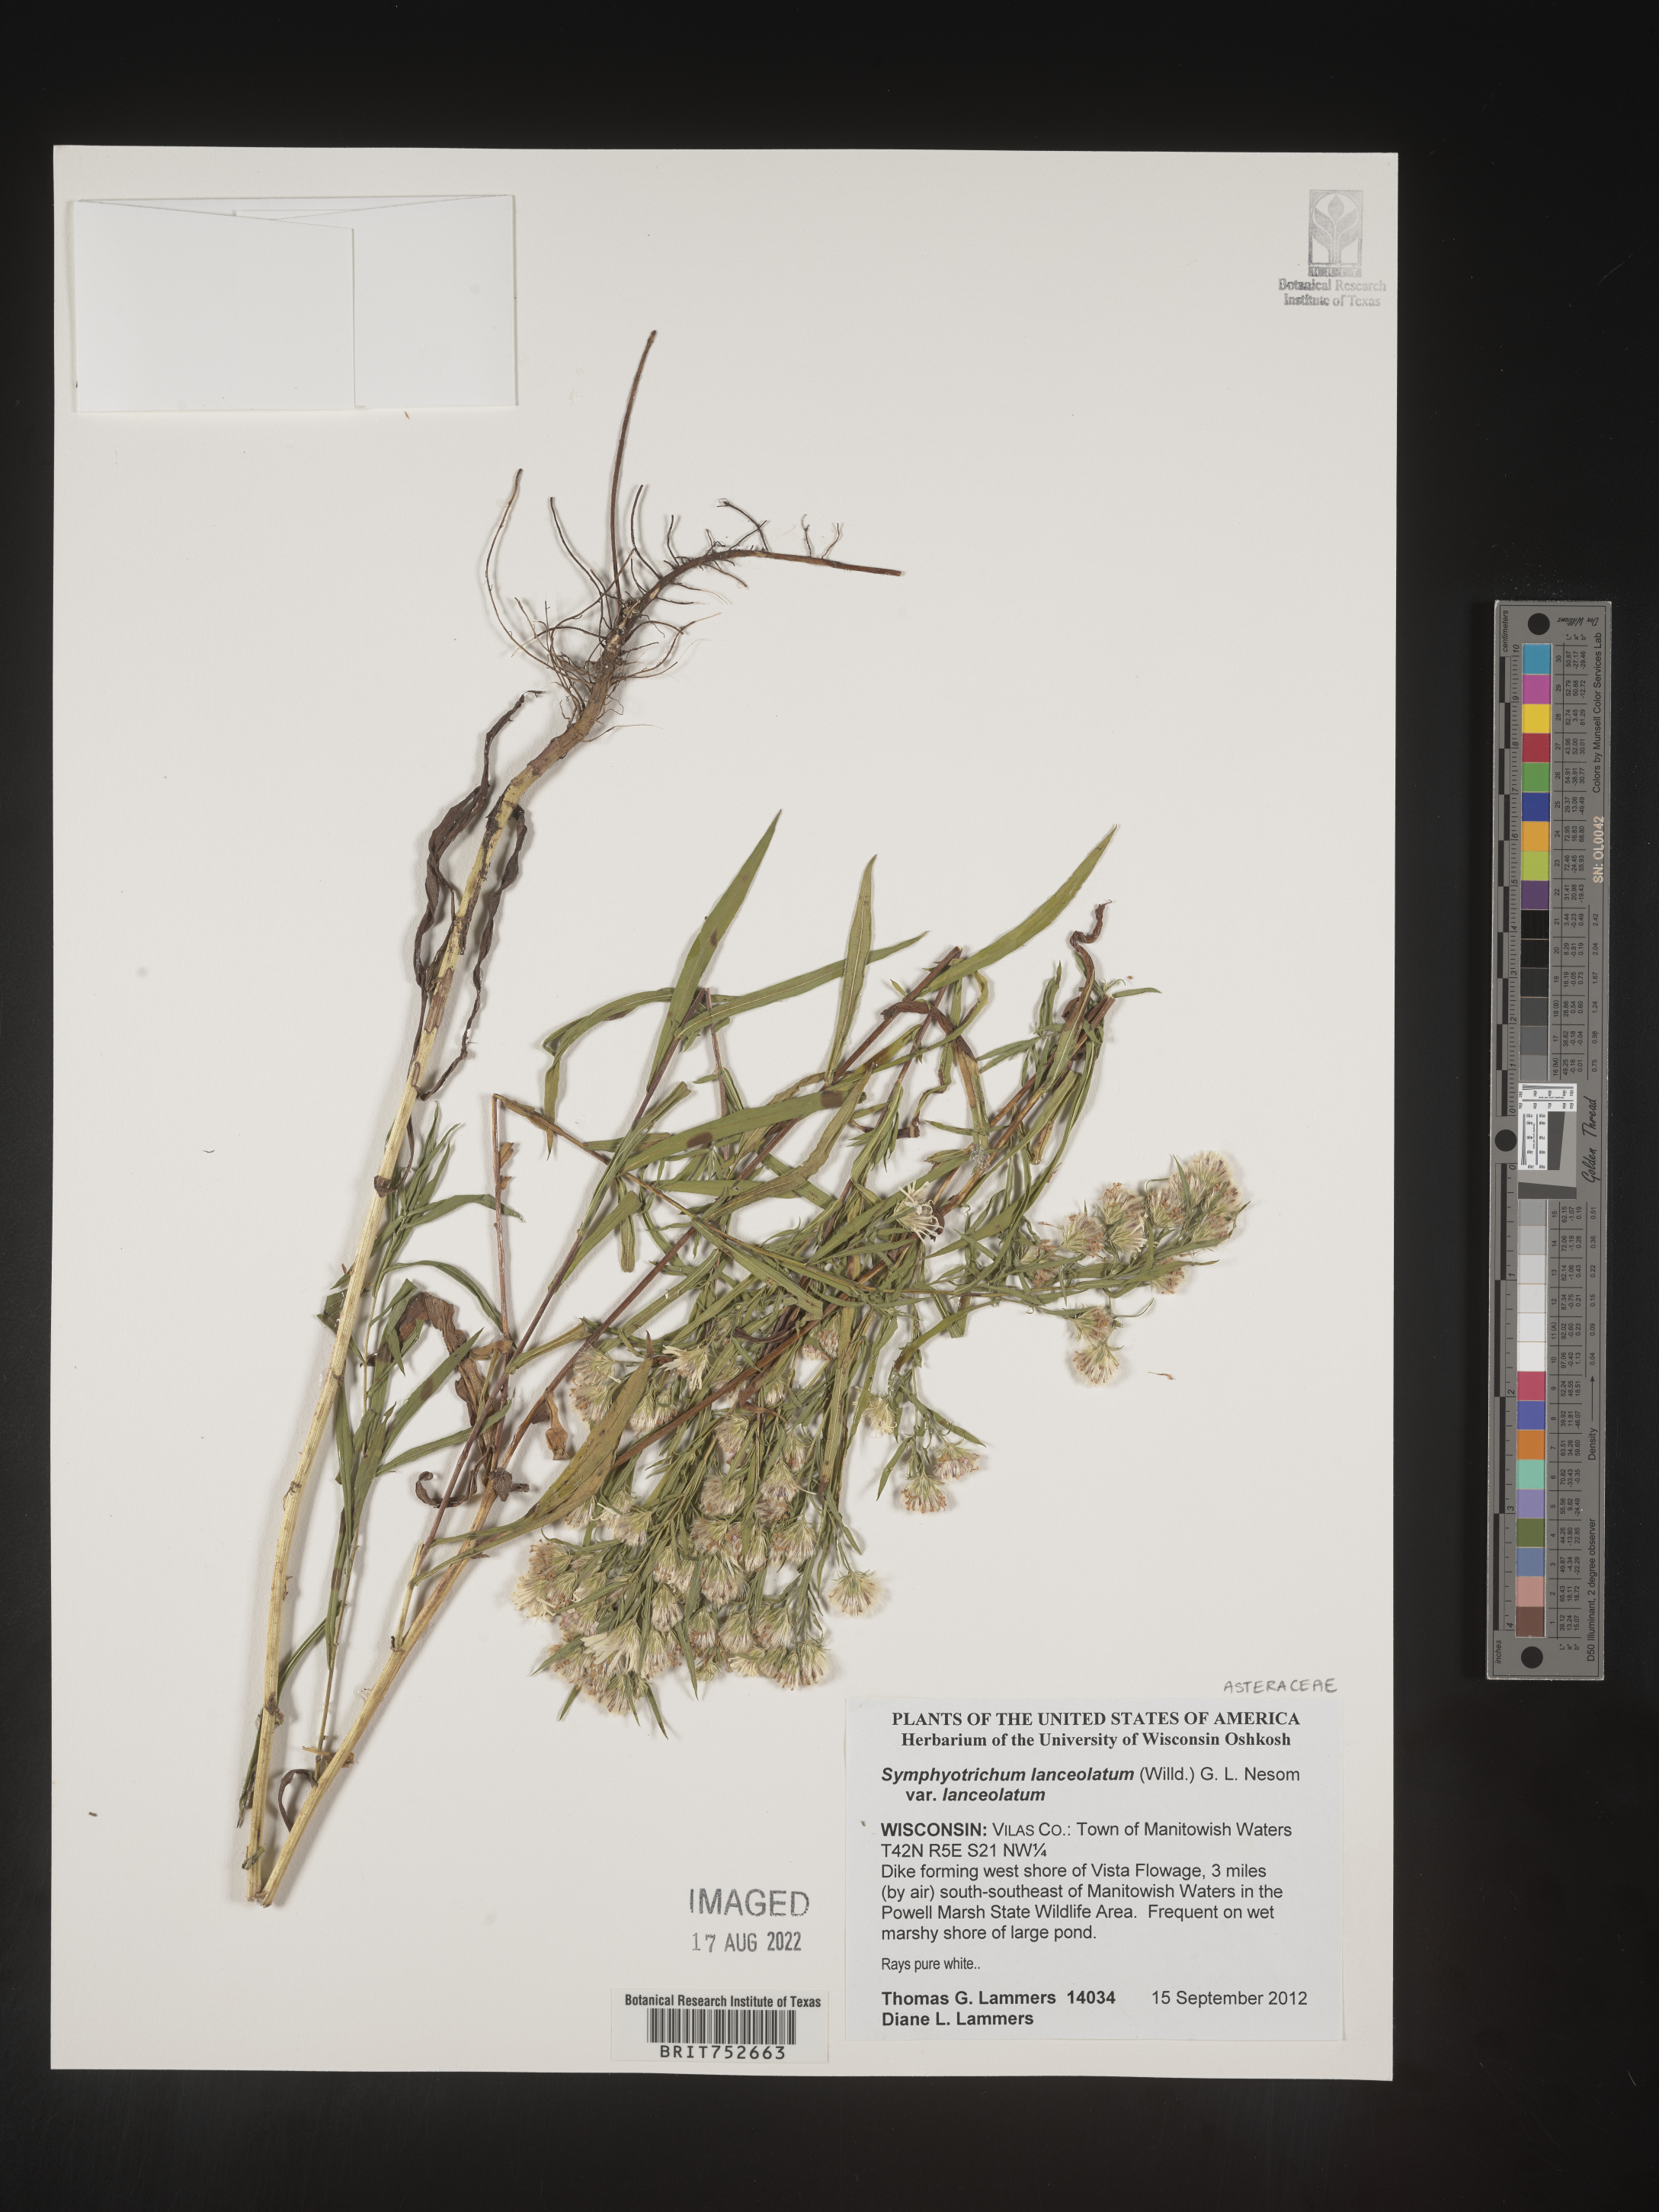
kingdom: Plantae
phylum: Tracheophyta
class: Magnoliopsida
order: Asterales
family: Asteraceae
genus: Symphyotrichum
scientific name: Symphyotrichum lanceolatum
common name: Panicled aster
